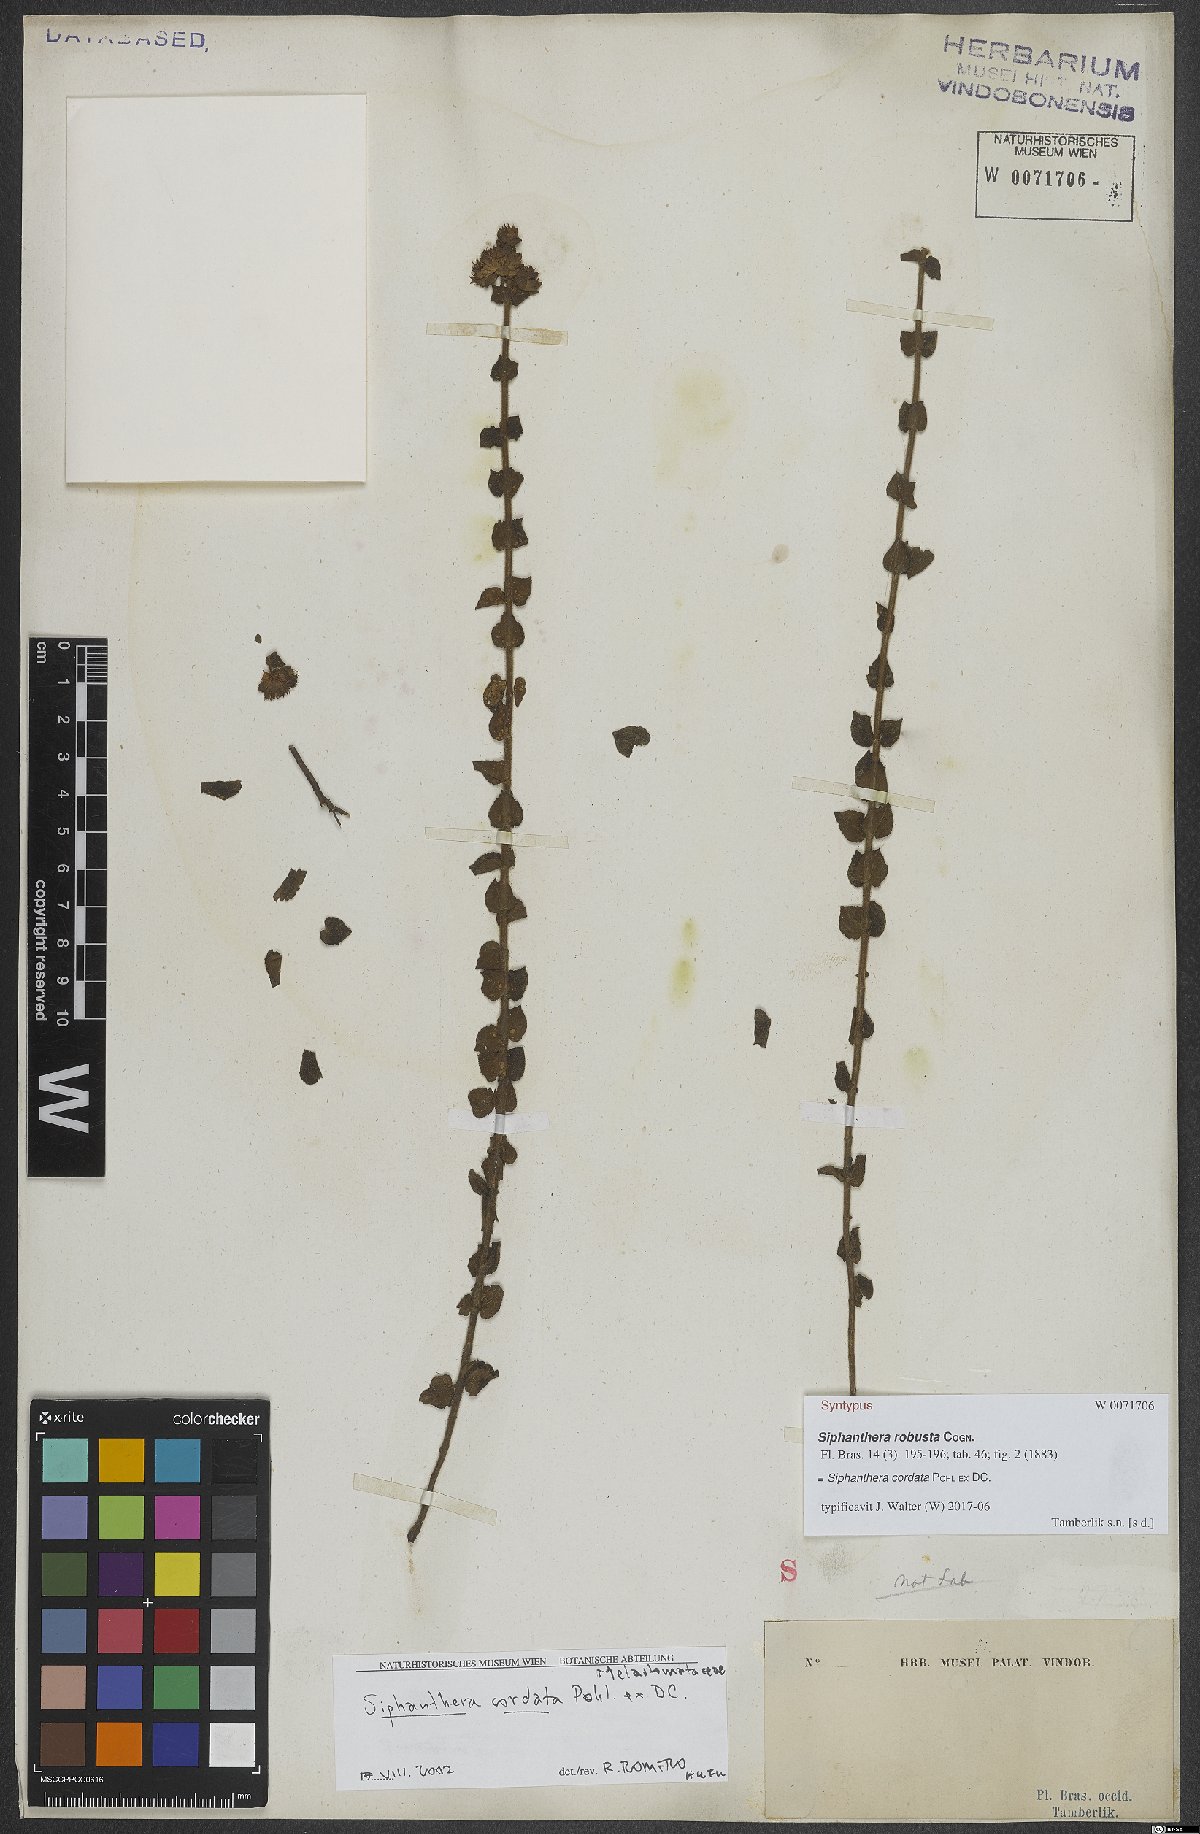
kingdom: Plantae
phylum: Tracheophyta
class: Magnoliopsida
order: Myrtales
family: Melastomataceae
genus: Siphanthera
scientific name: Siphanthera cordata
